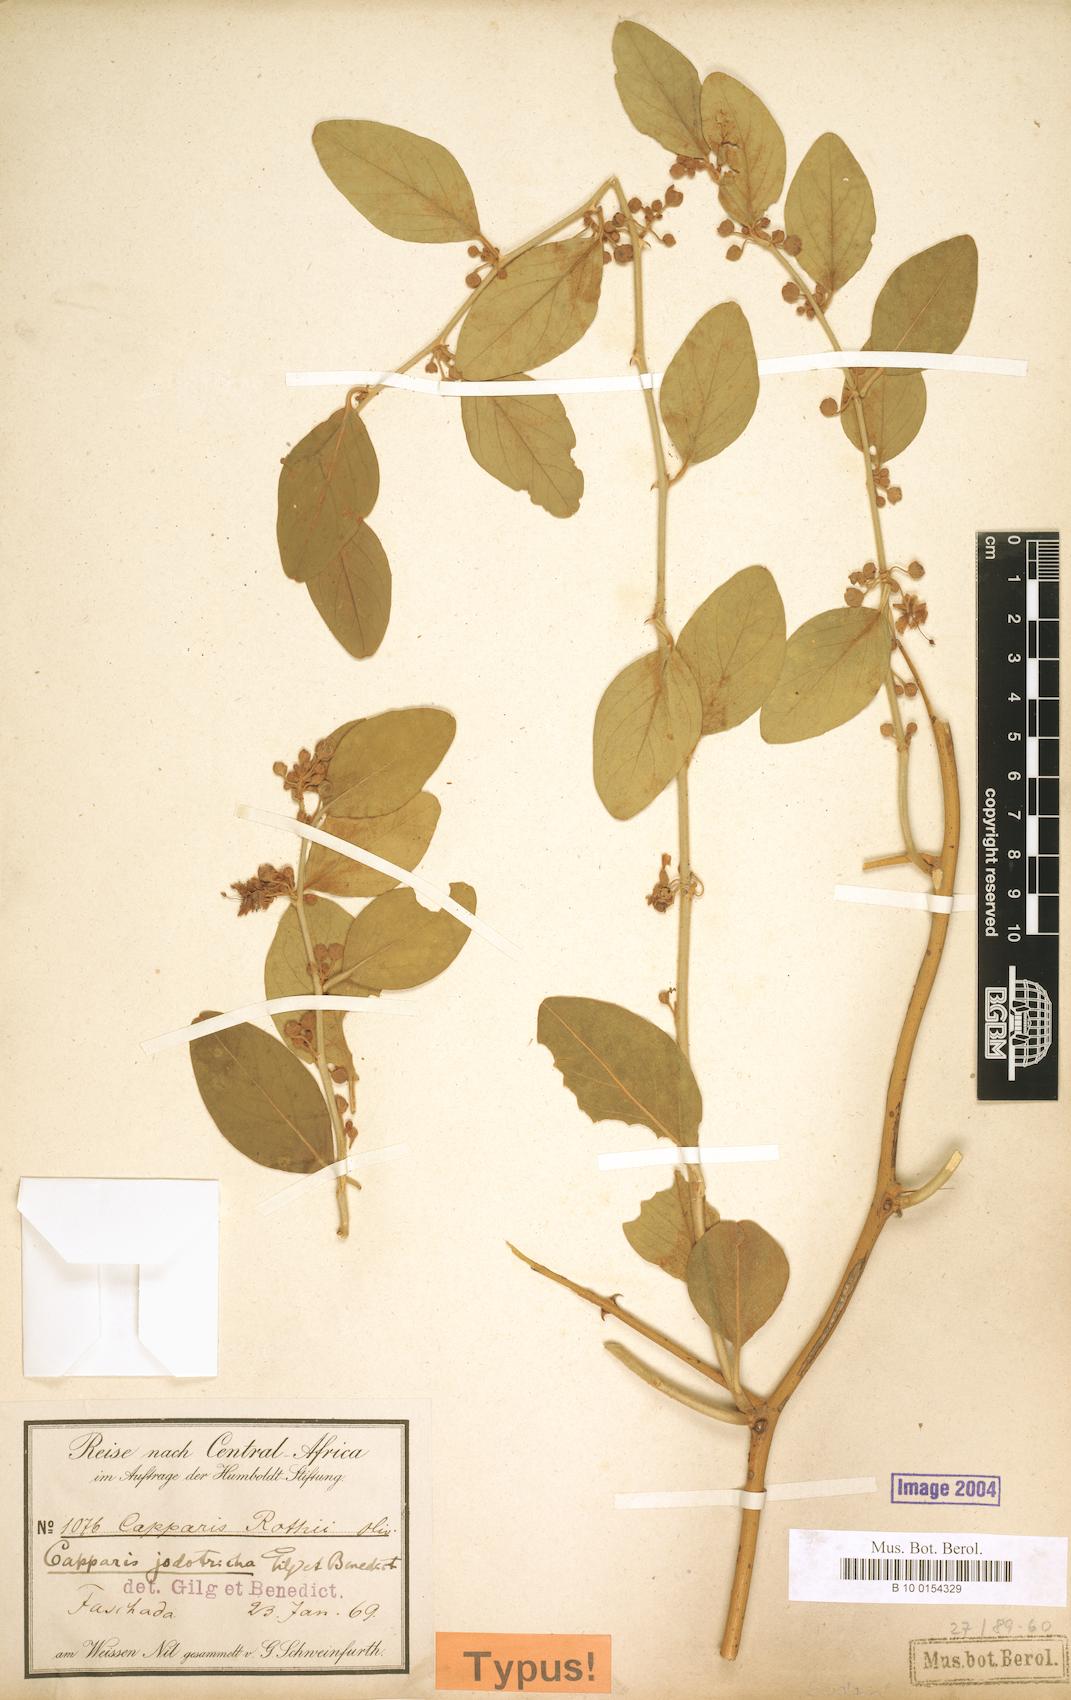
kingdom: Plantae
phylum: Tracheophyta
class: Magnoliopsida
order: Brassicales
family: Capparaceae
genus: Capparis
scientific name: Capparis fascicularis
